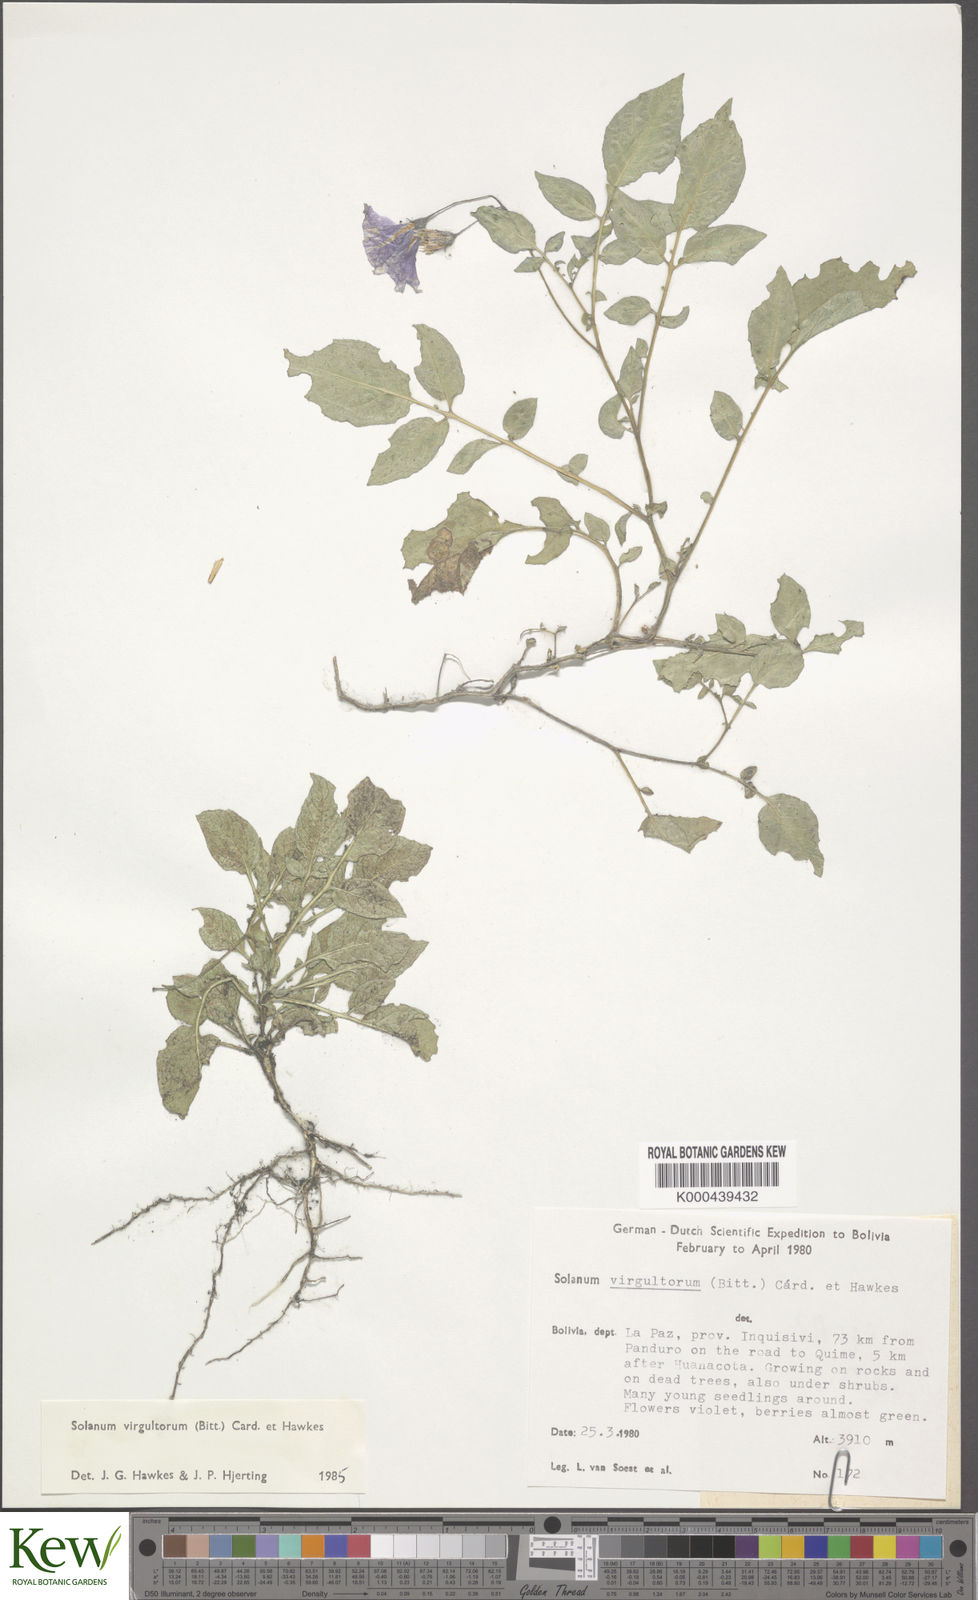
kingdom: Plantae
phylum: Tracheophyta
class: Magnoliopsida
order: Solanales
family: Solanaceae
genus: Solanum
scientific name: Solanum brevicaule
